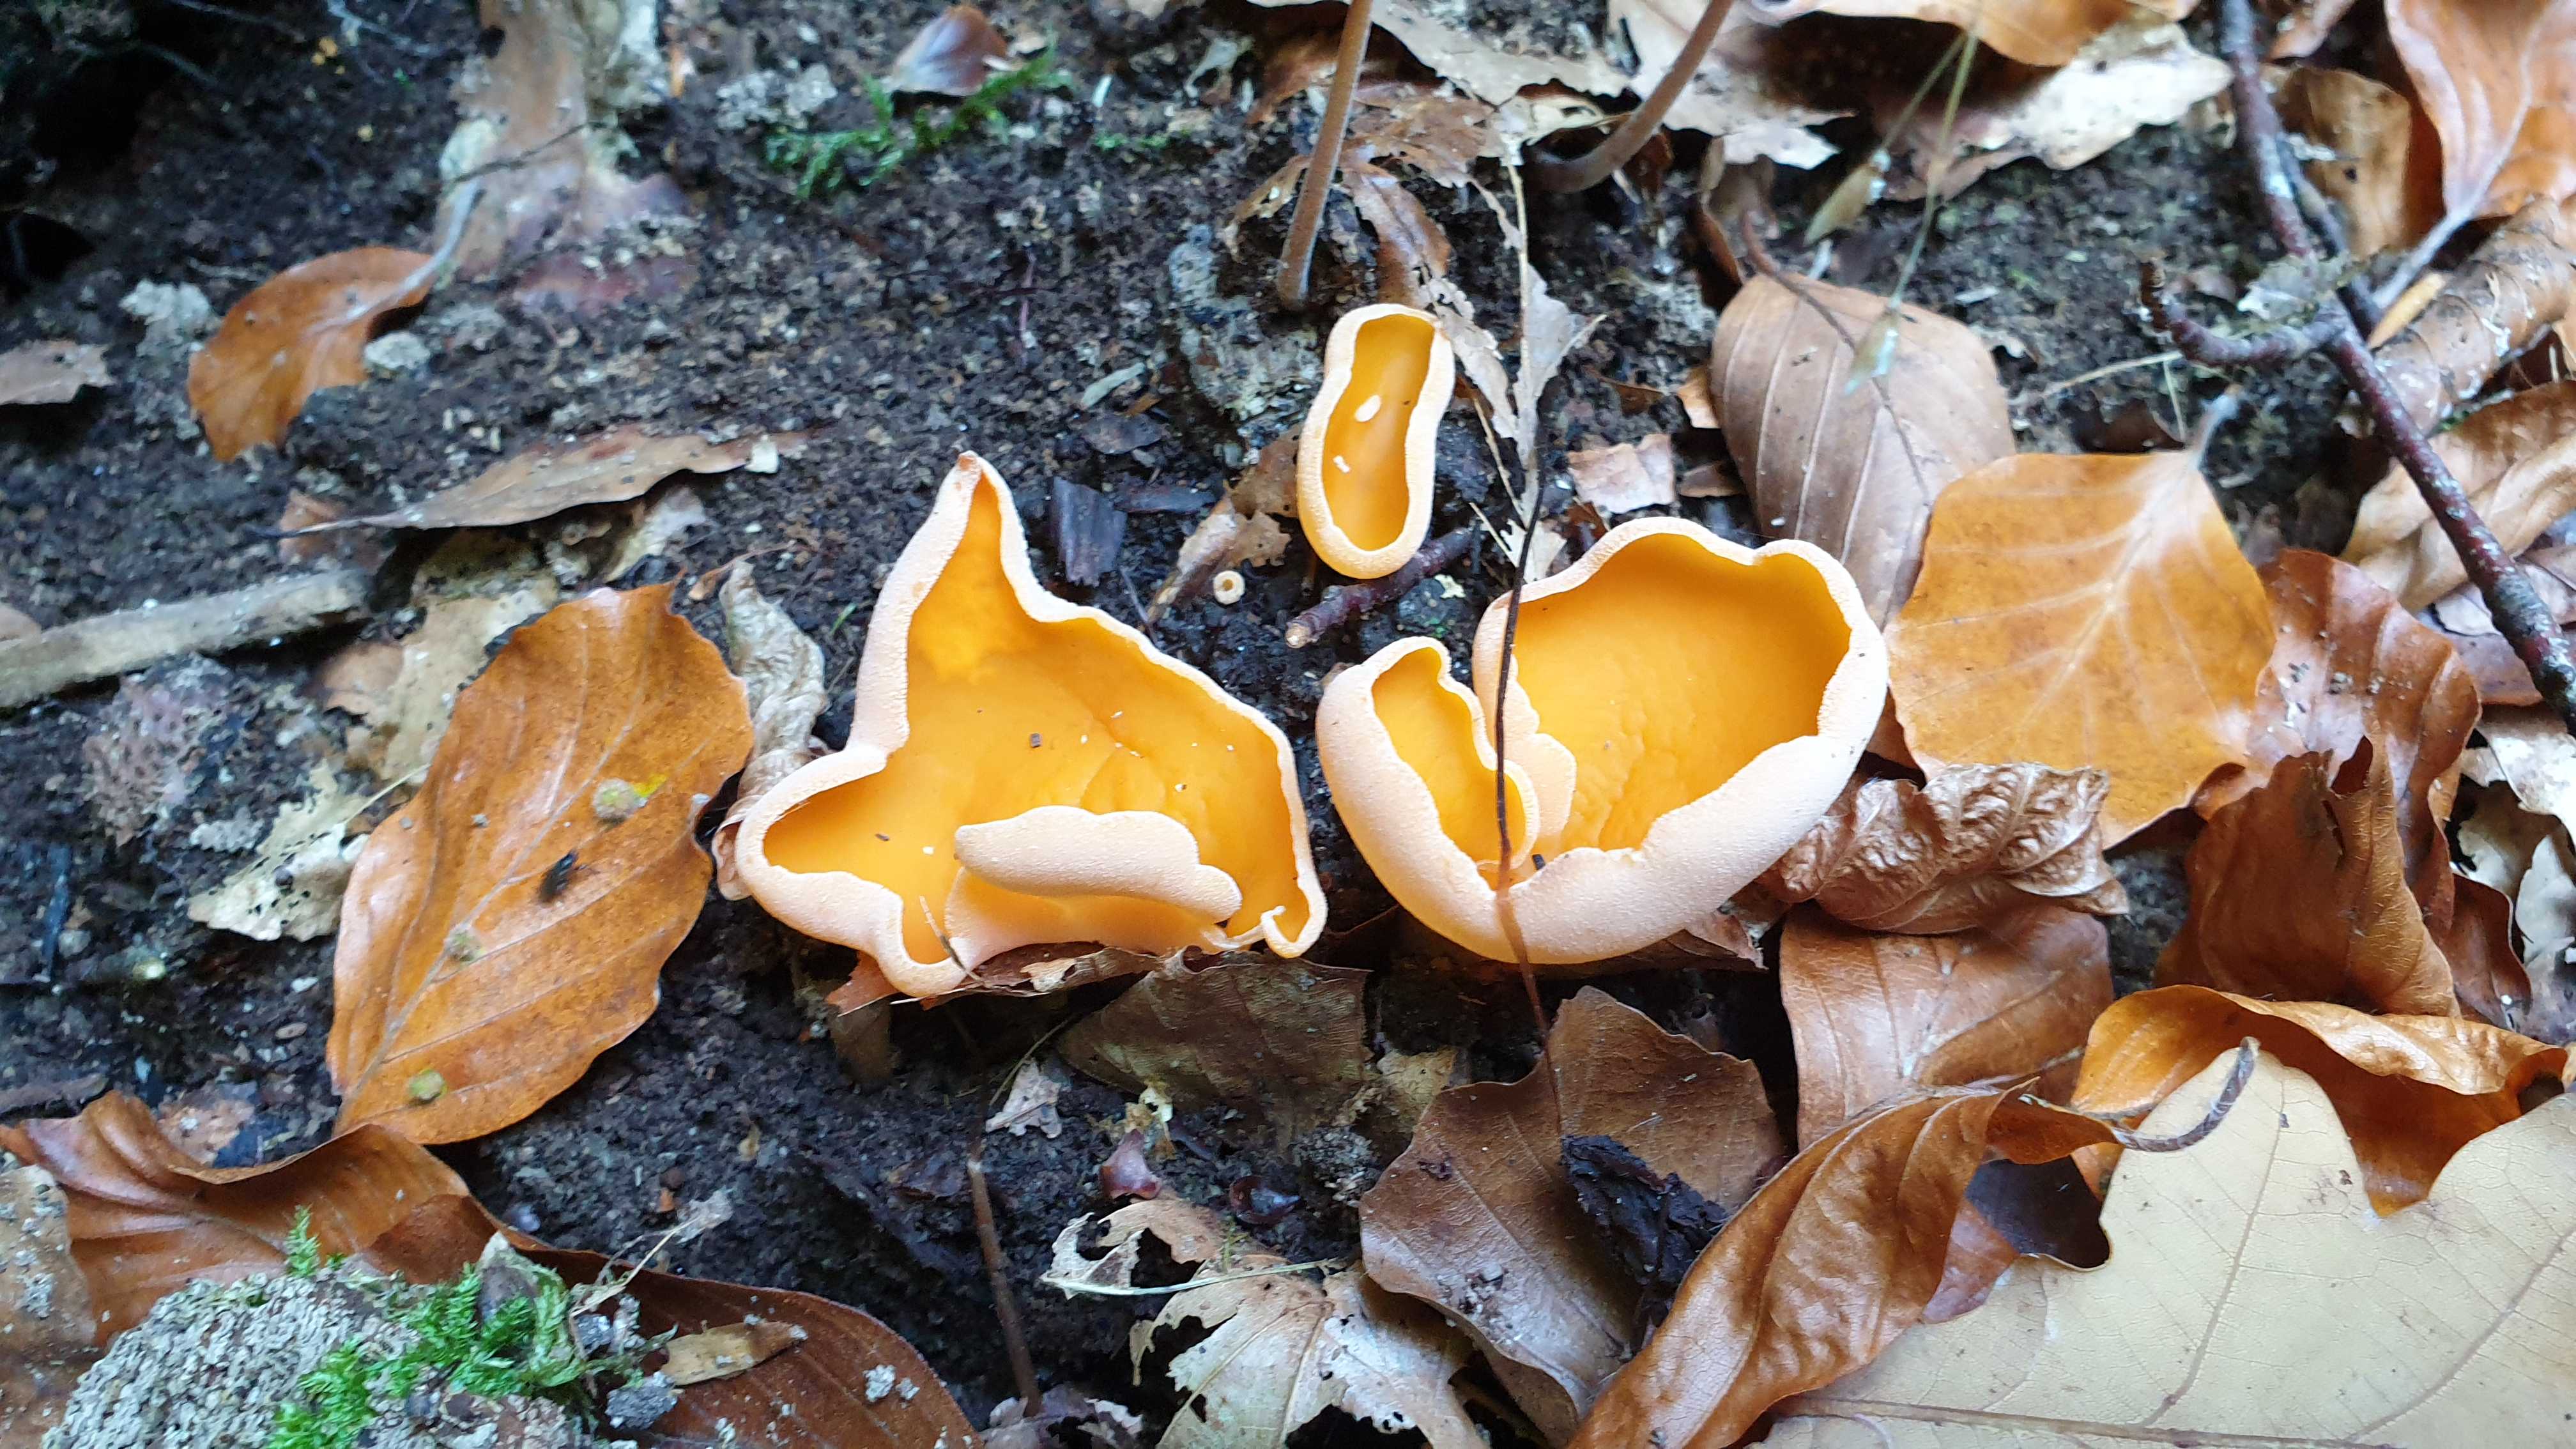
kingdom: Fungi
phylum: Ascomycota
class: Pezizomycetes
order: Pezizales
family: Pyronemataceae
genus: Aleuria
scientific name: Aleuria aurantia
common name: almindelig orangebæger
